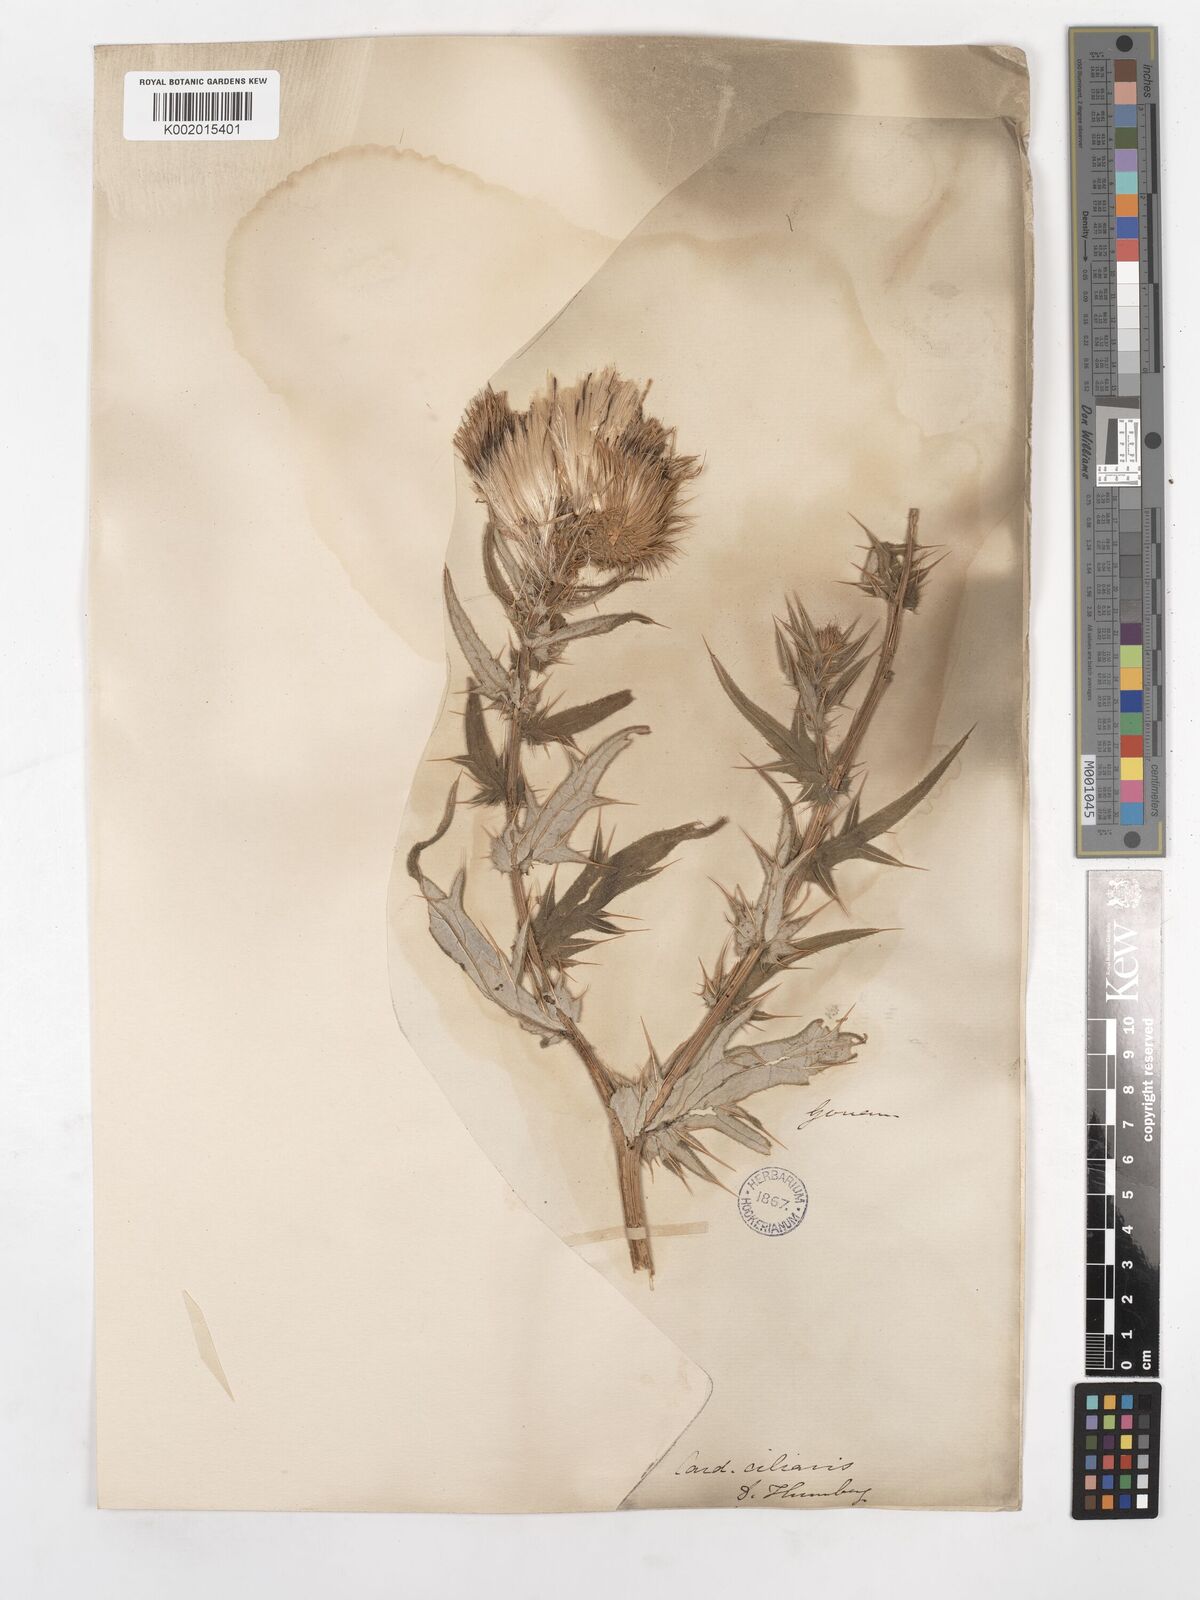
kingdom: Plantae
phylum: Tracheophyta
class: Magnoliopsida
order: Asterales
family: Asteraceae
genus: Cirsium
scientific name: Cirsium
